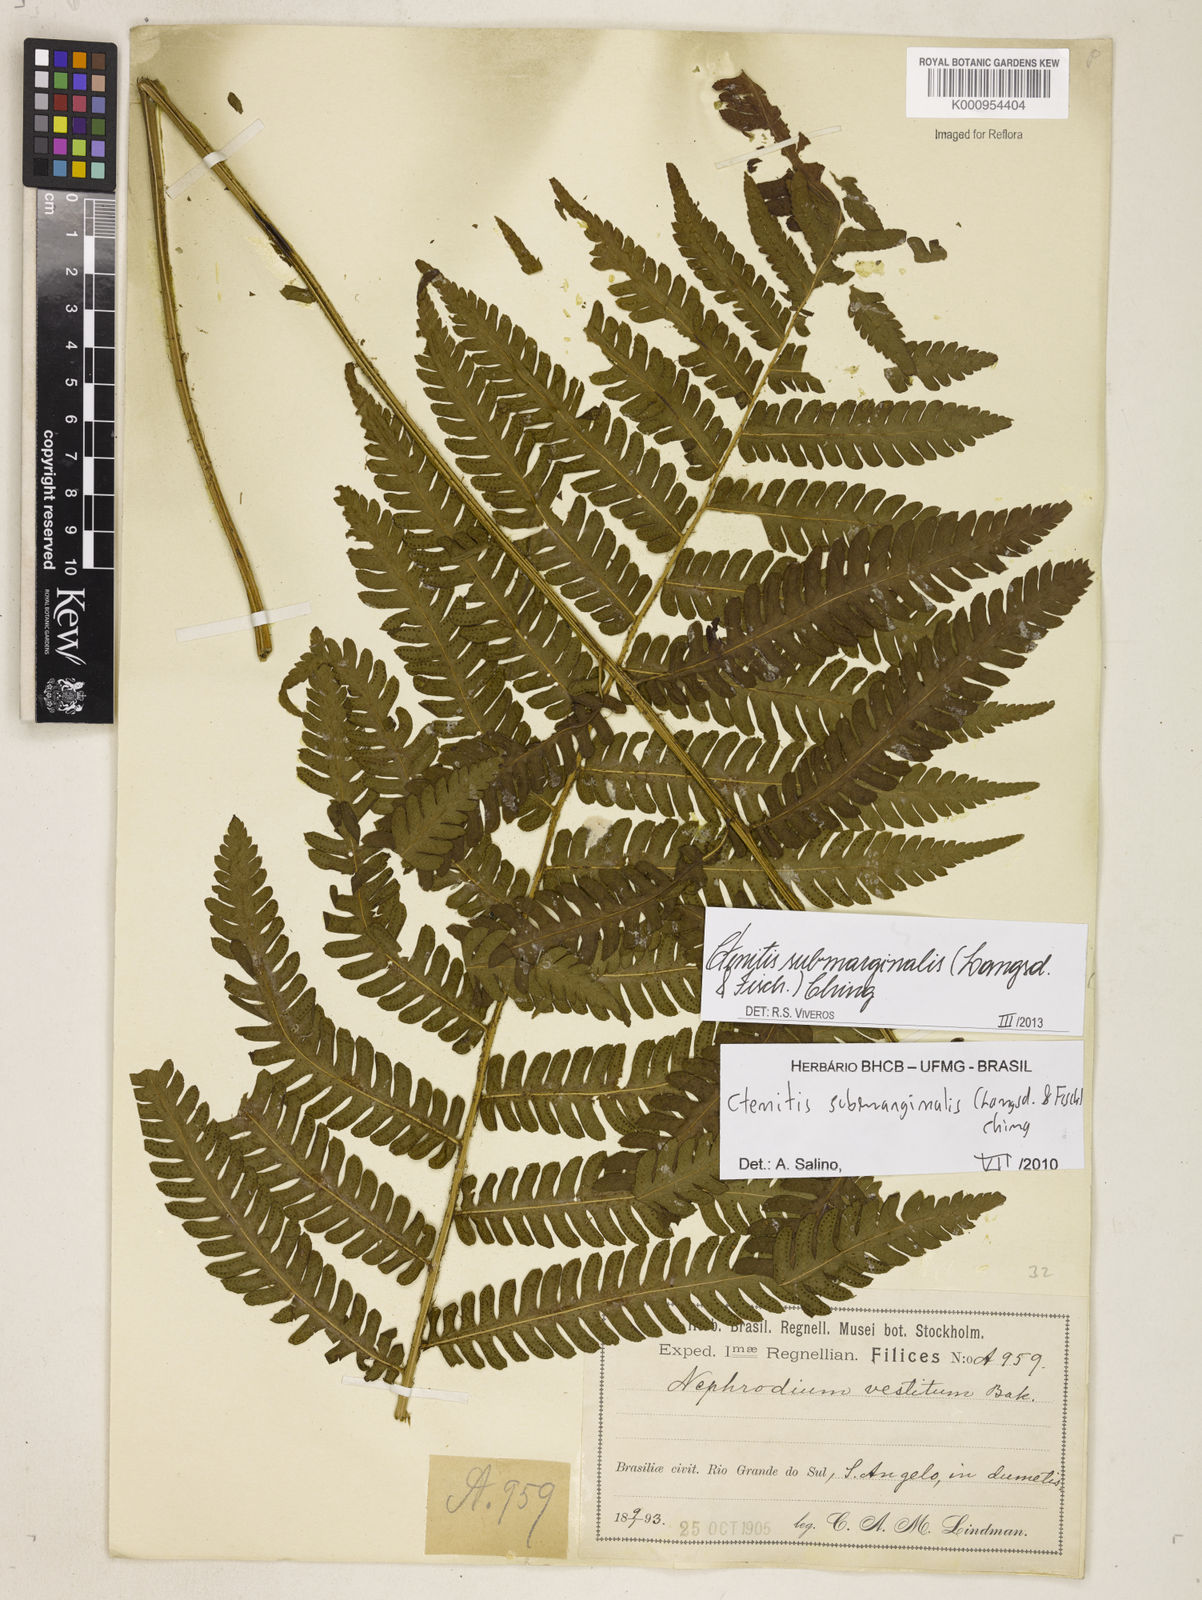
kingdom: Plantae
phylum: Tracheophyta
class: Polypodiopsida
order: Polypodiales
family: Dryopteridaceae
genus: Ctenitis
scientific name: Ctenitis submarginalis
